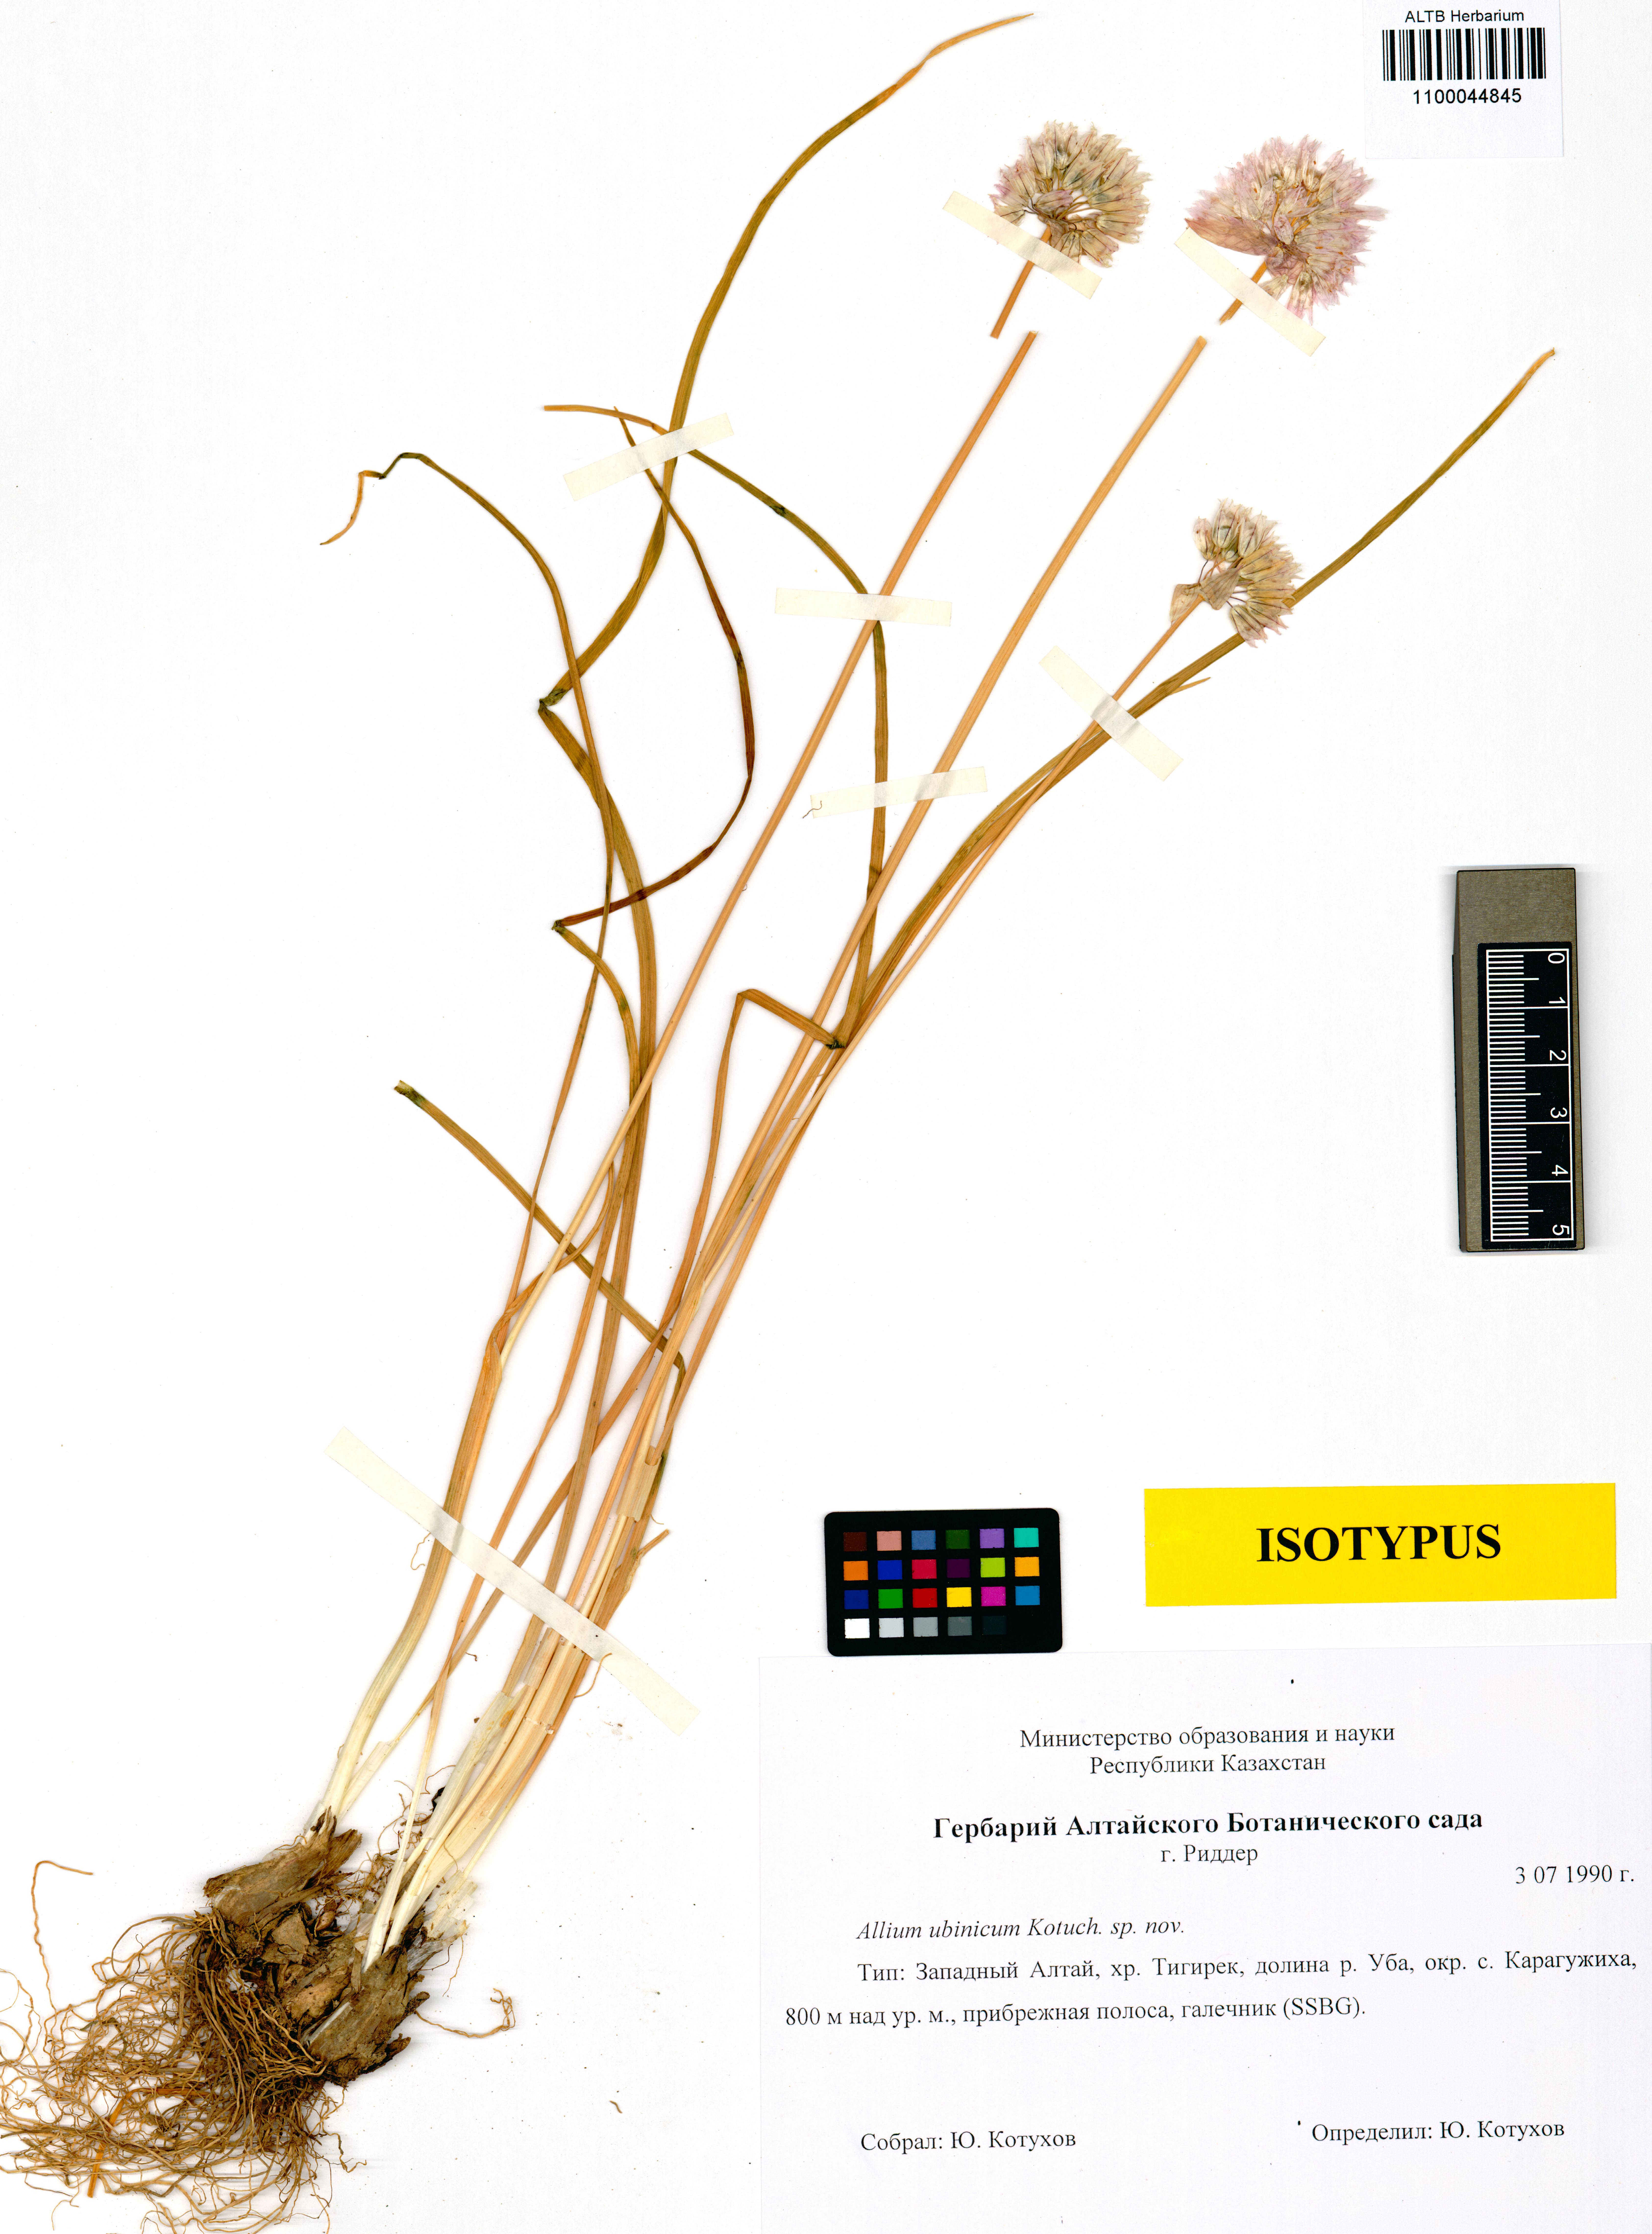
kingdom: Plantae
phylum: Tracheophyta
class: Liliopsida
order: Asparagales
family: Amaryllidaceae
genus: Allium
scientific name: Allium schoenoprasum
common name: Chives
